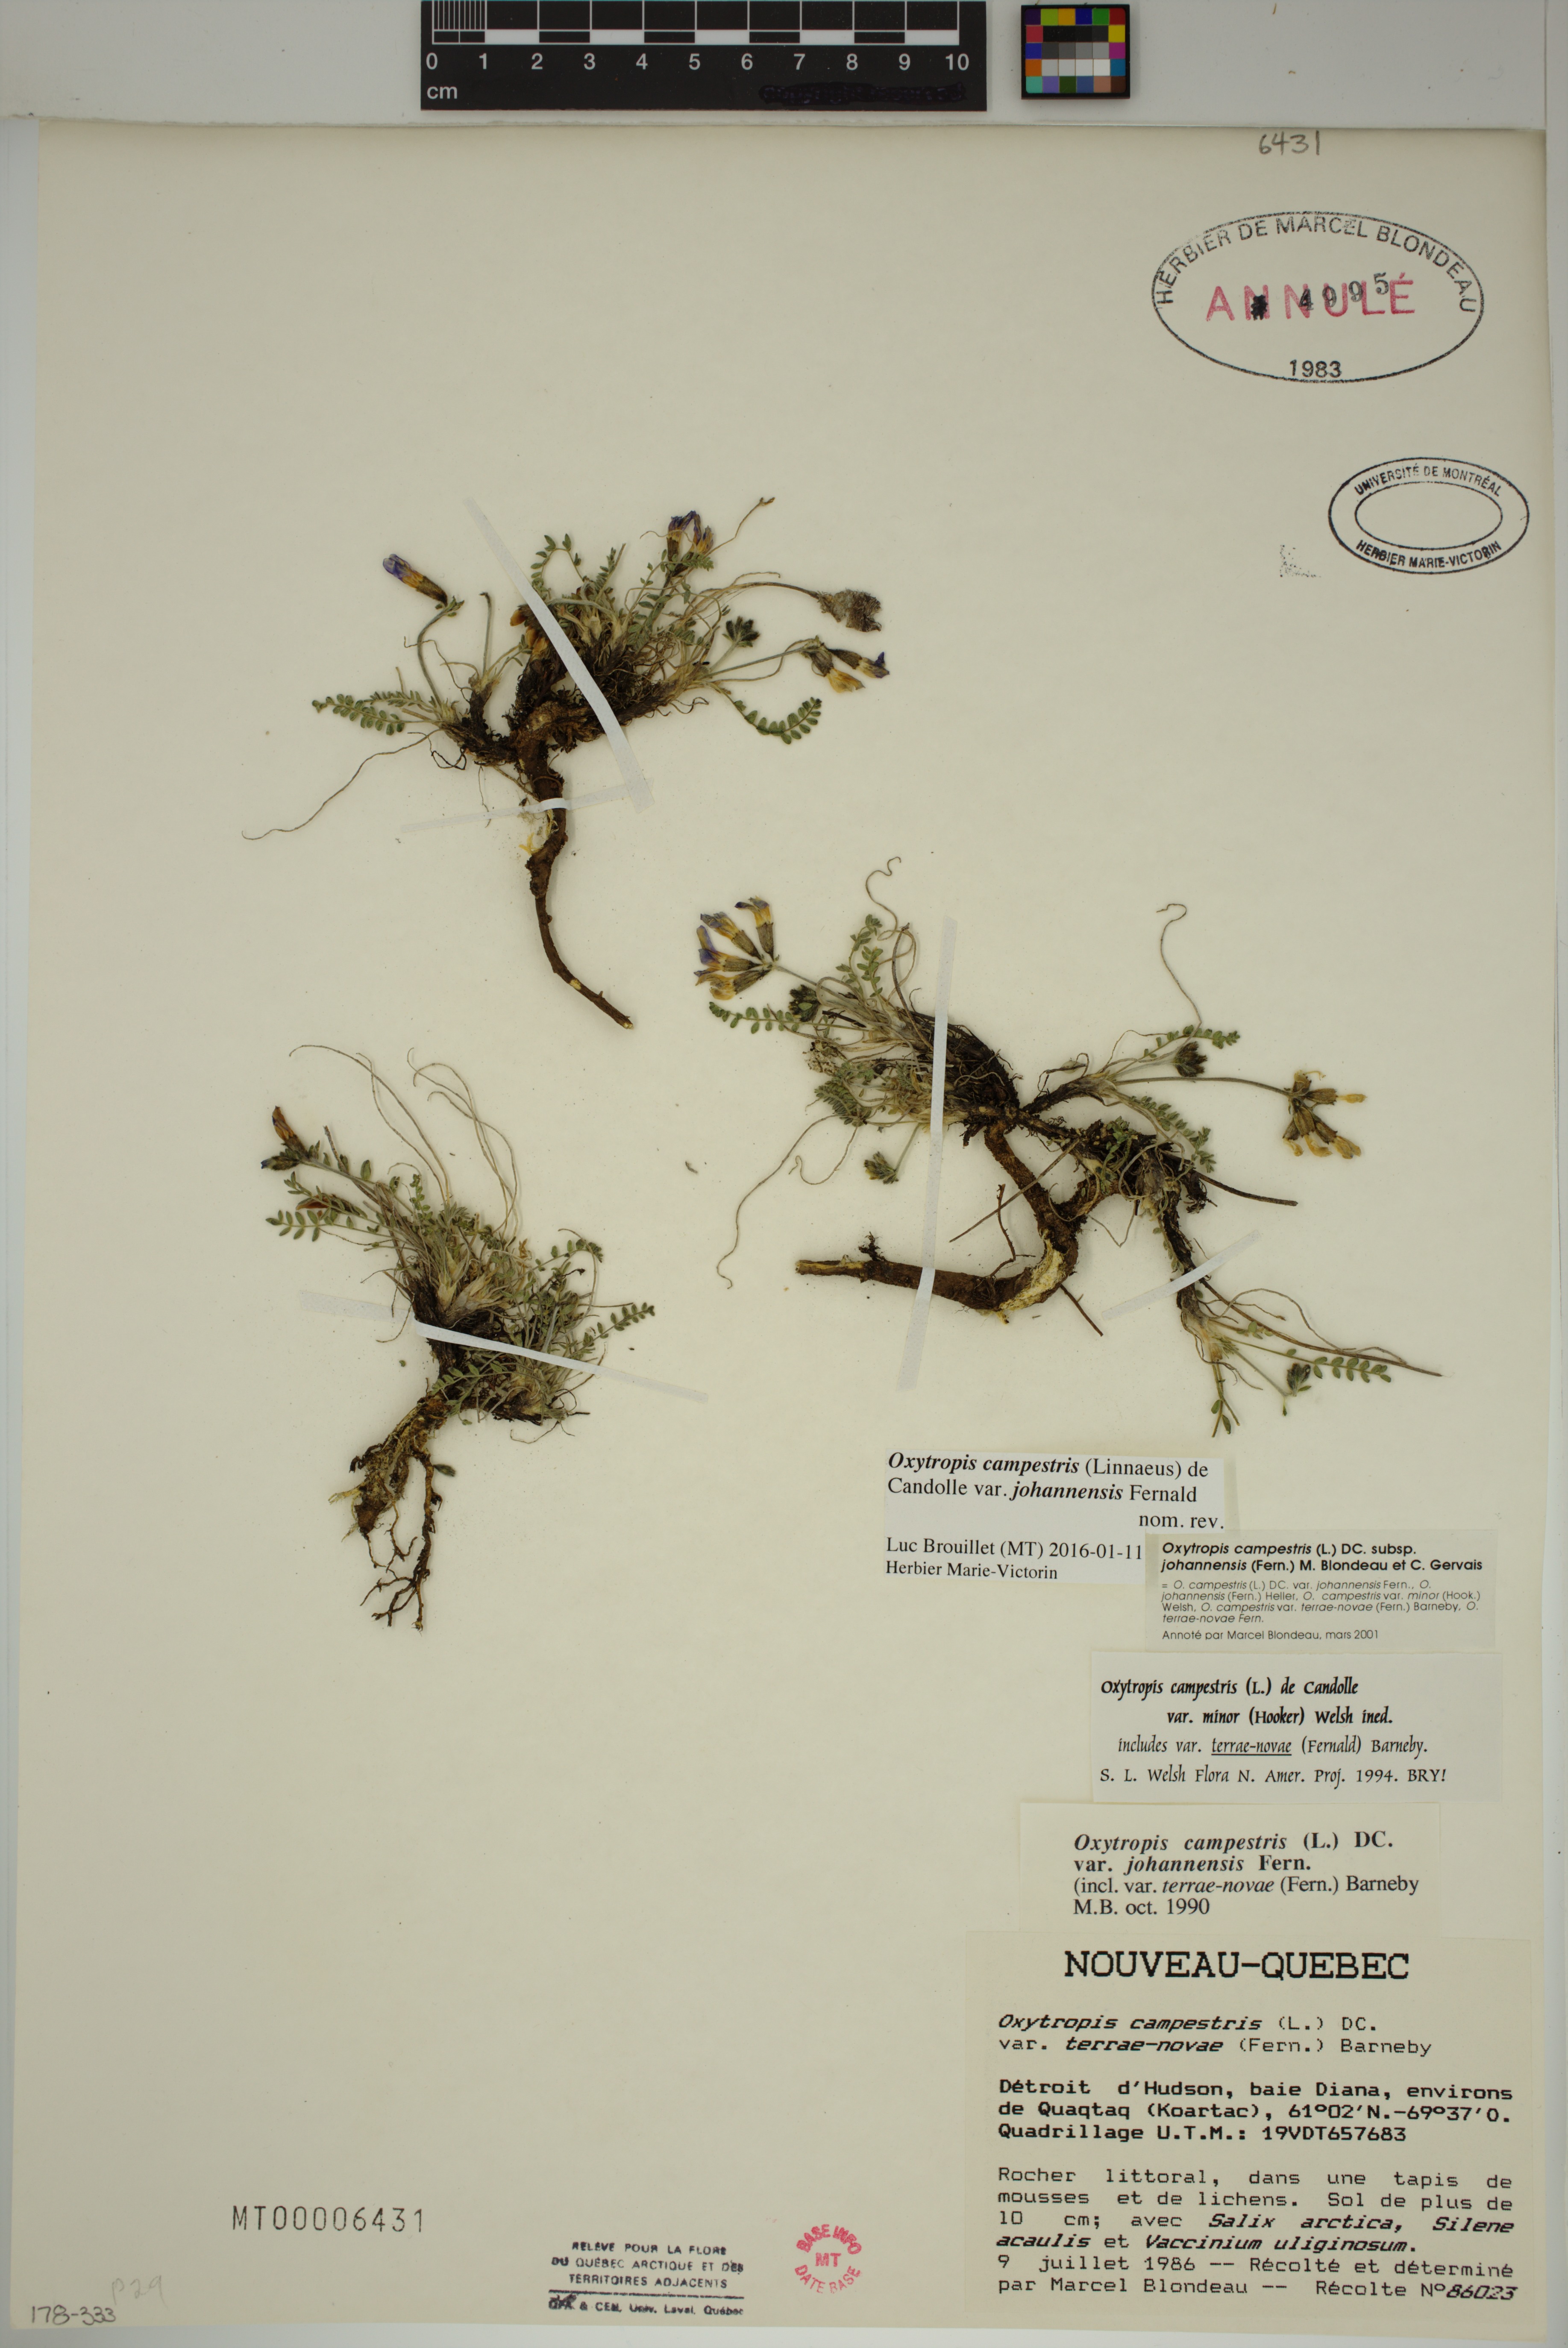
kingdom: Plantae
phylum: Tracheophyta
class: Magnoliopsida
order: Fabales
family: Fabaceae
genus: Oxytropis
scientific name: Oxytropis campestris
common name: Field locoweed
